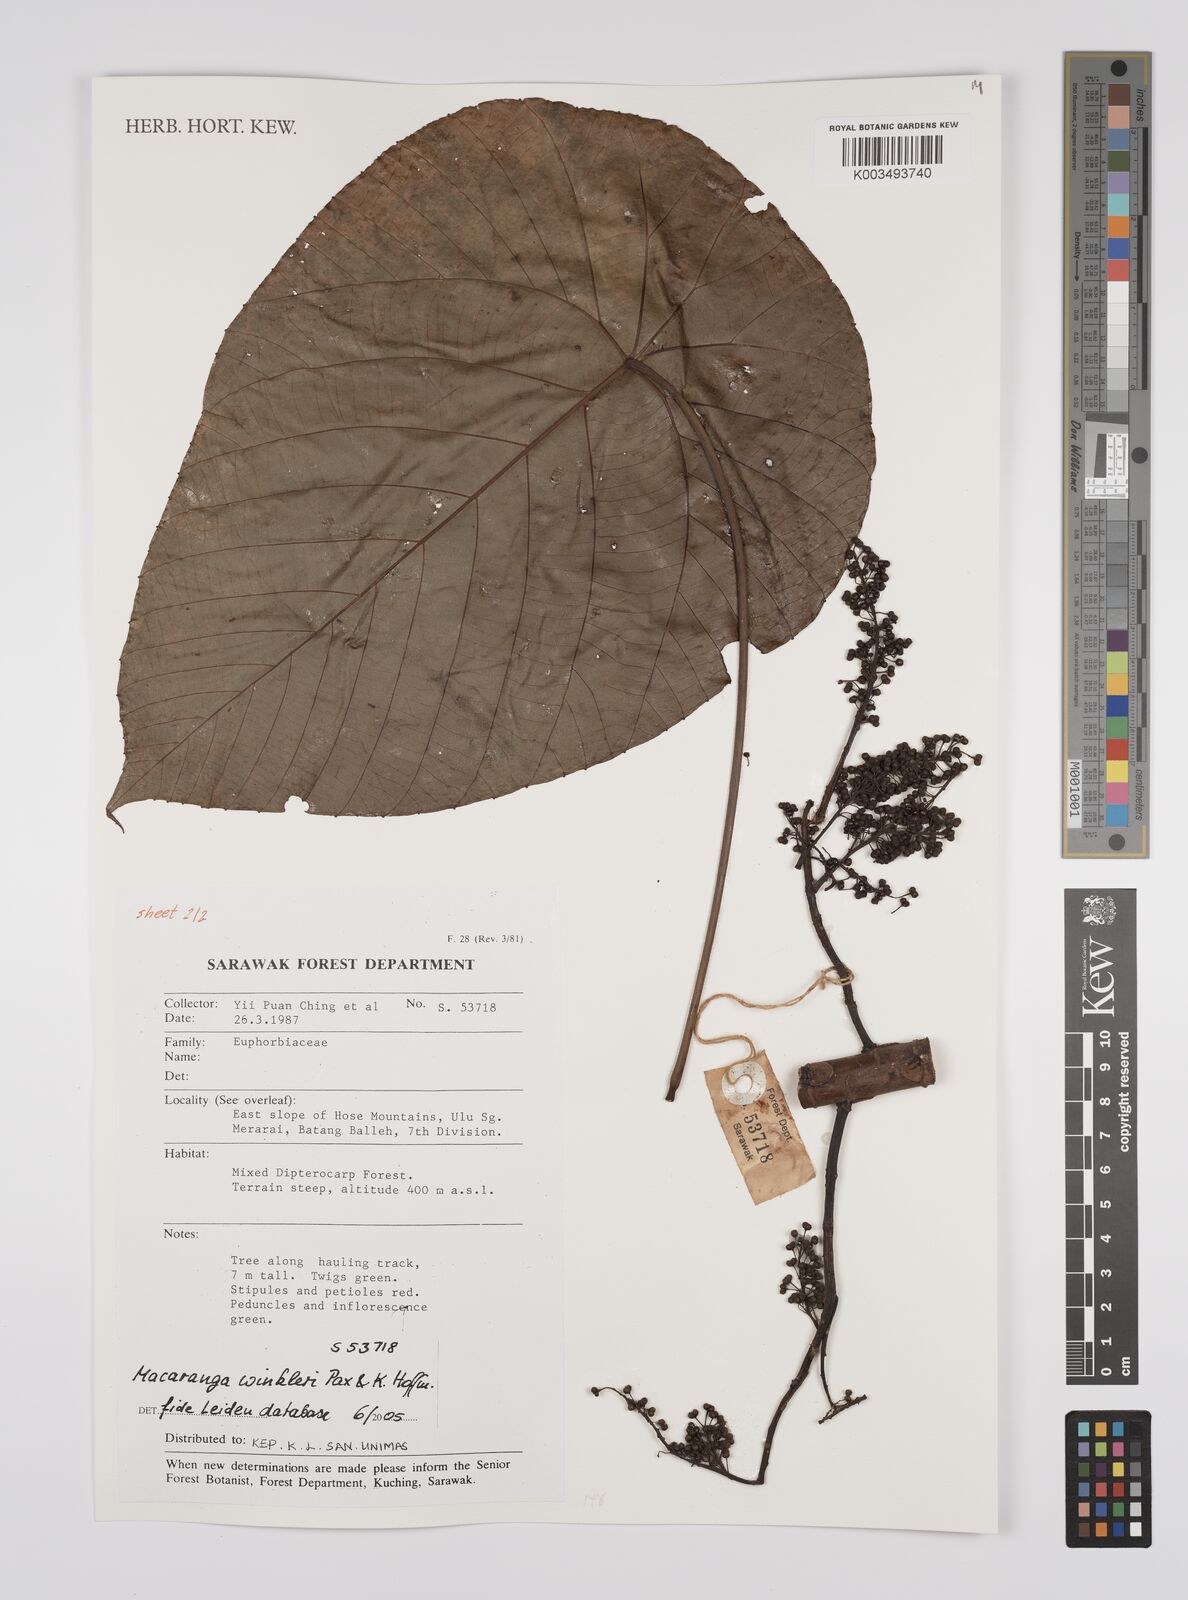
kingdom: Plantae
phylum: Tracheophyta
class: Magnoliopsida
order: Malpighiales
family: Euphorbiaceae
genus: Macaranga
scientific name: Macaranga winkleri
